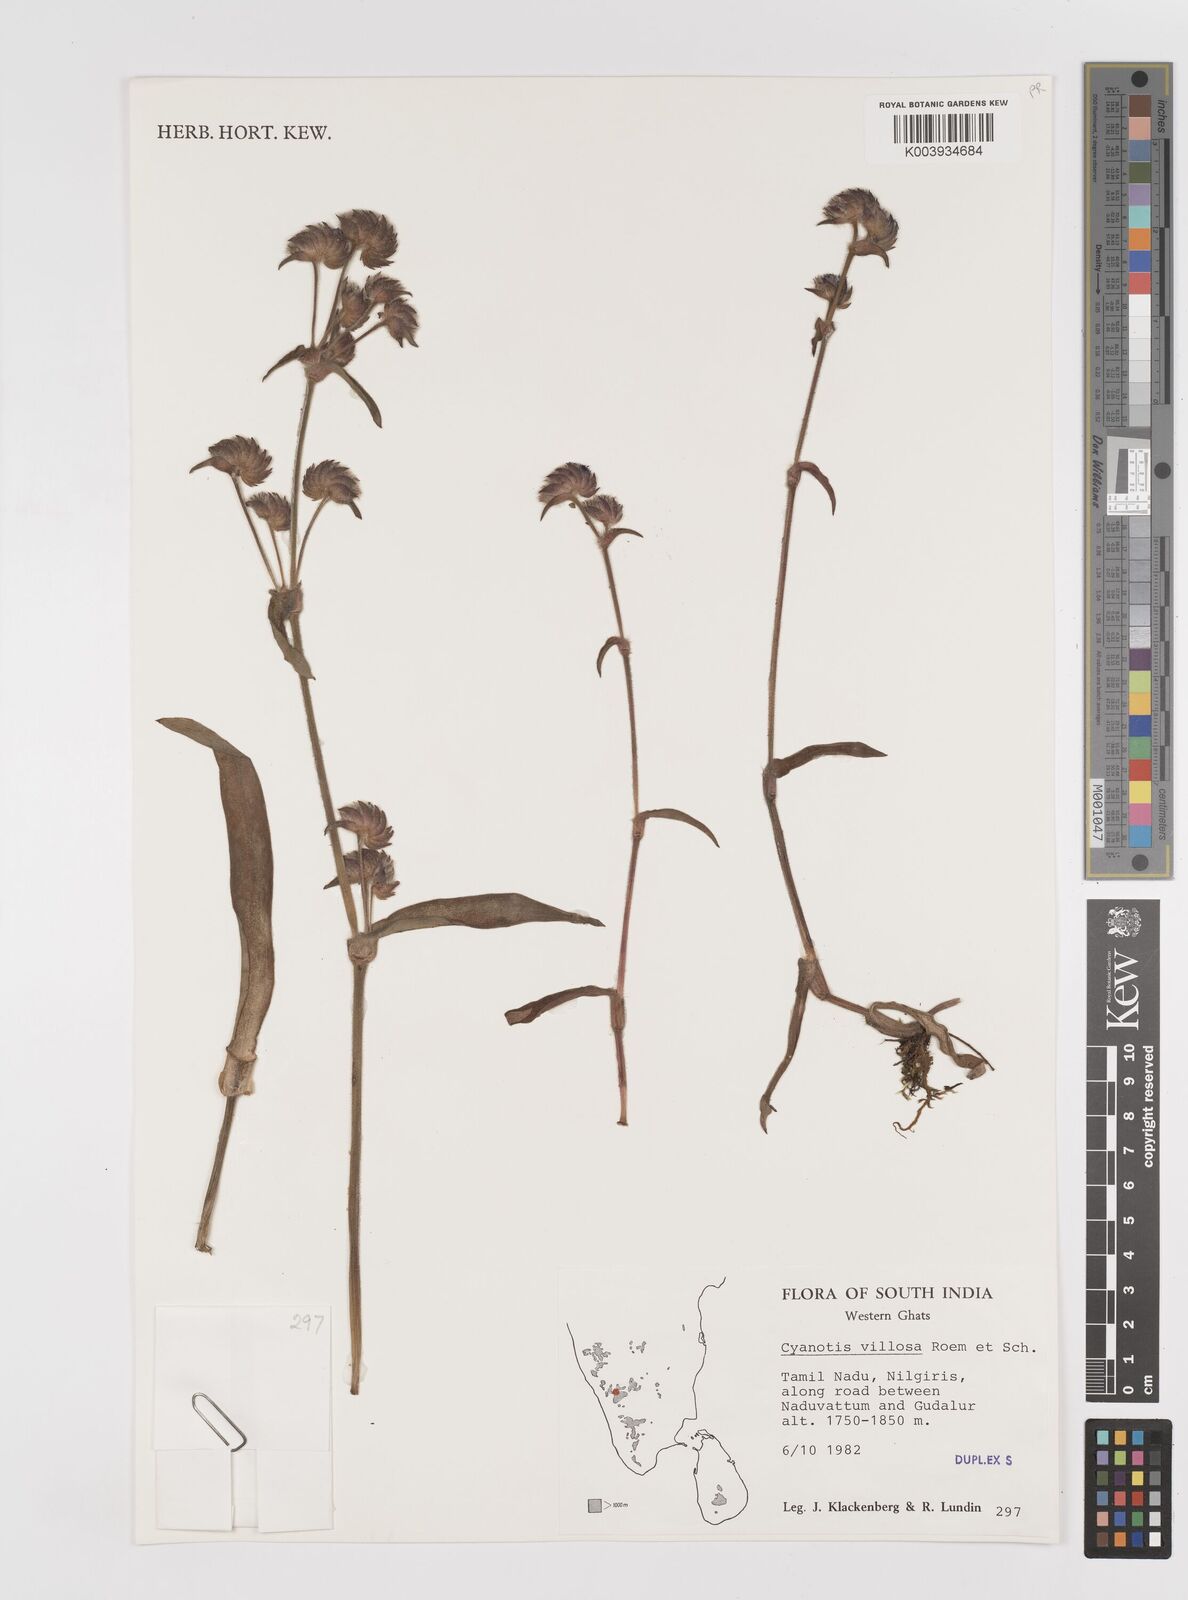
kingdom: Plantae
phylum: Tracheophyta
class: Liliopsida
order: Commelinales
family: Commelinaceae
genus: Cyanotis
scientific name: Cyanotis villosa
